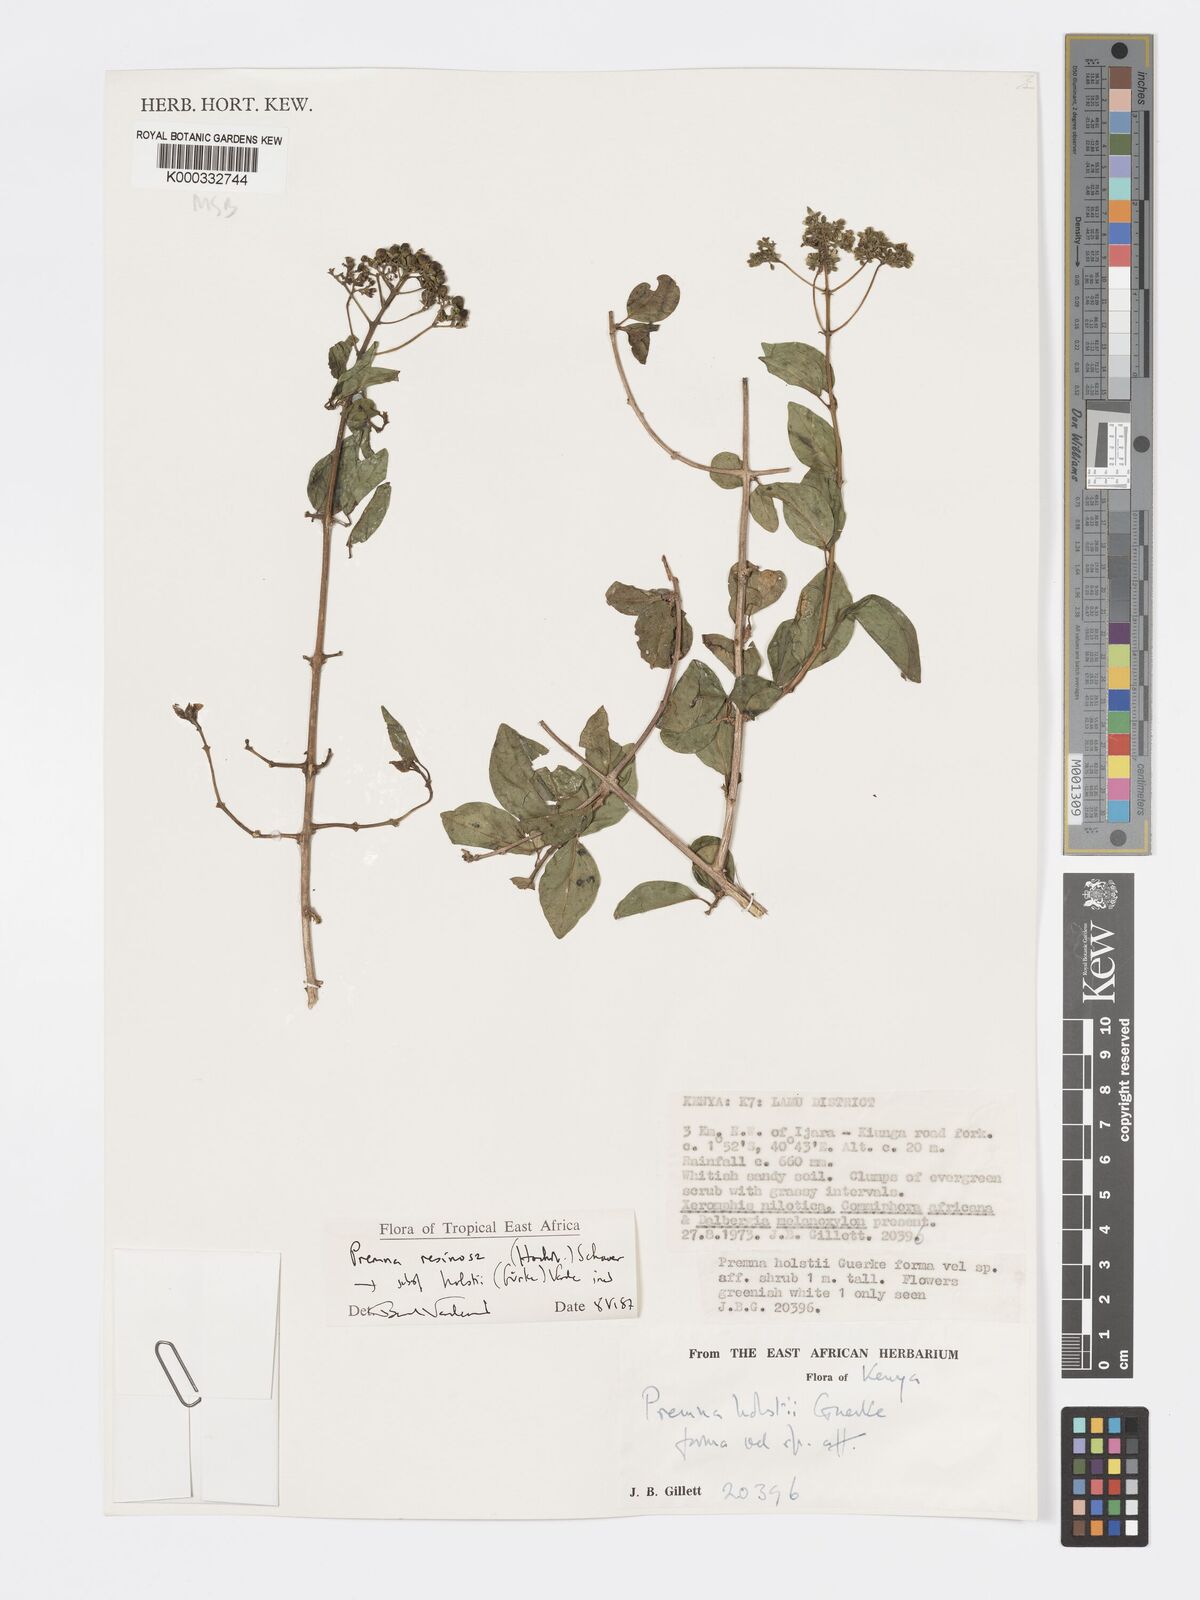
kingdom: Plantae
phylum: Tracheophyta
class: Magnoliopsida
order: Lamiales
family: Lamiaceae
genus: Premna
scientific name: Premna resinosa
